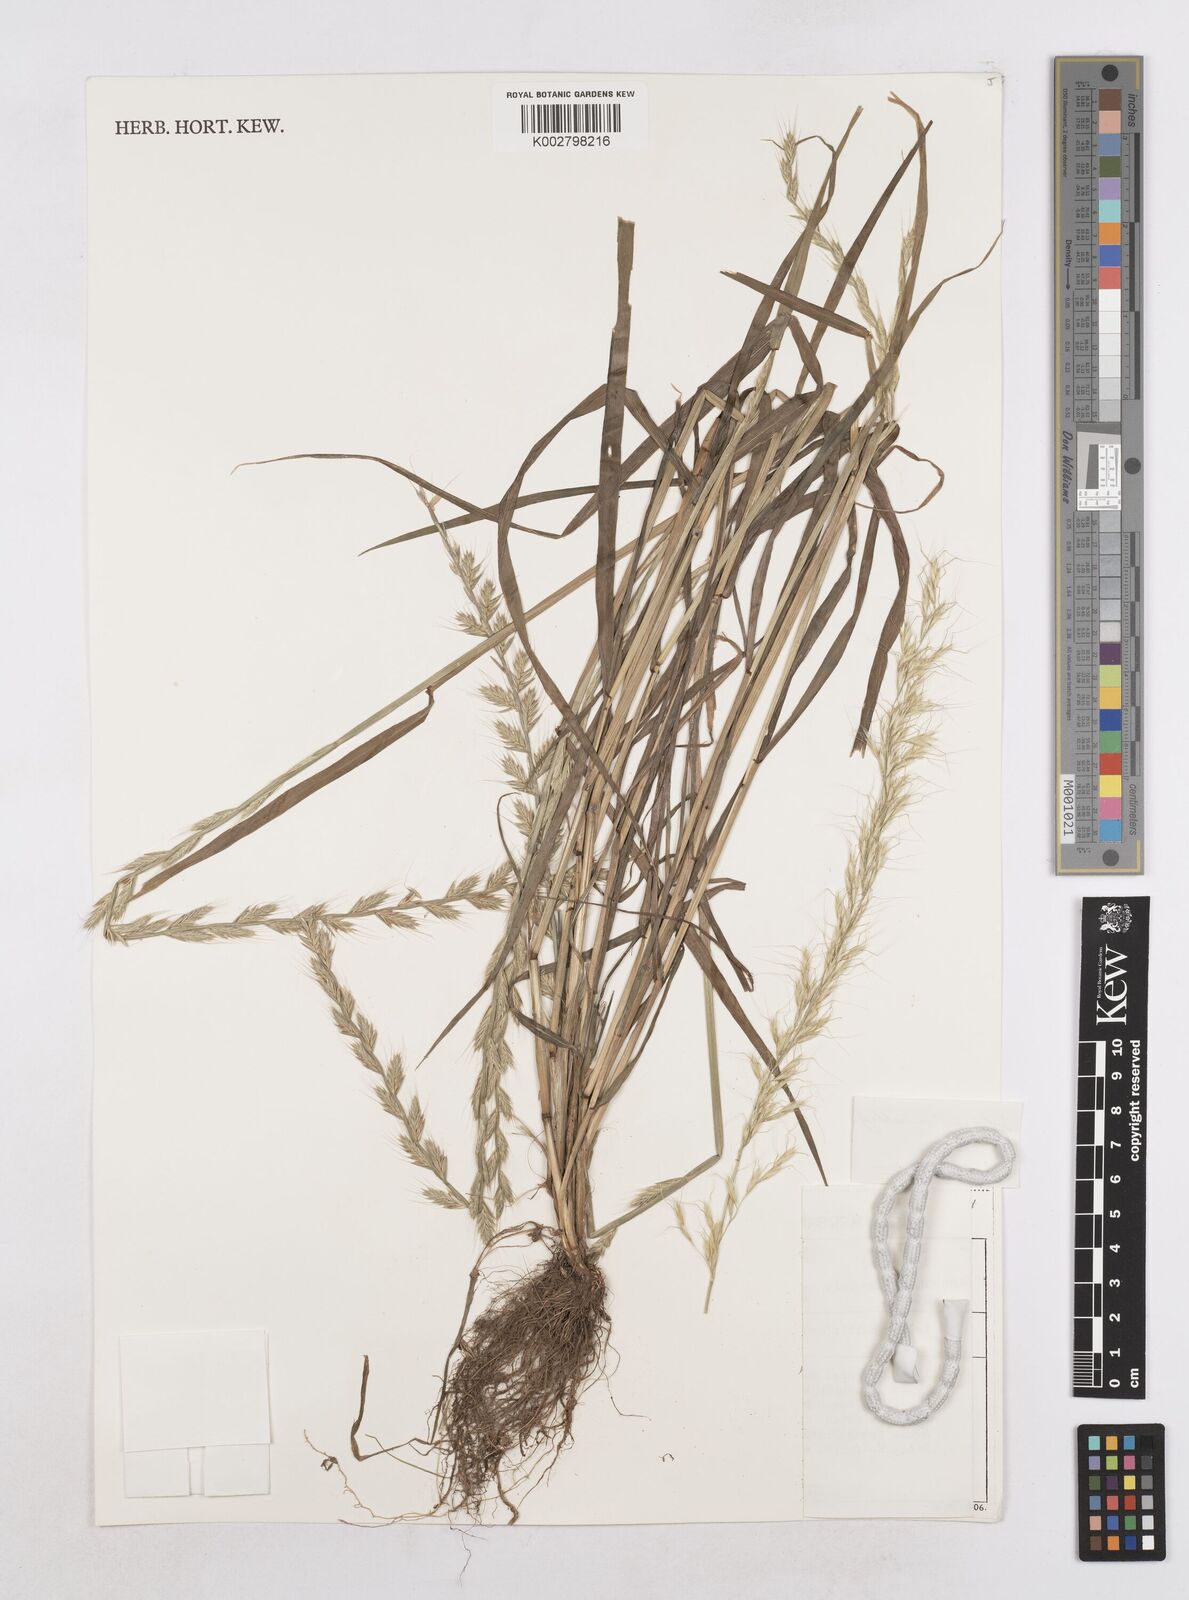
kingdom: Plantae
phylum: Tracheophyta
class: Liliopsida
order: Poales
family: Poaceae
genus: Lolium
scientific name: Lolium multiflorum
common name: Annual ryegrass
